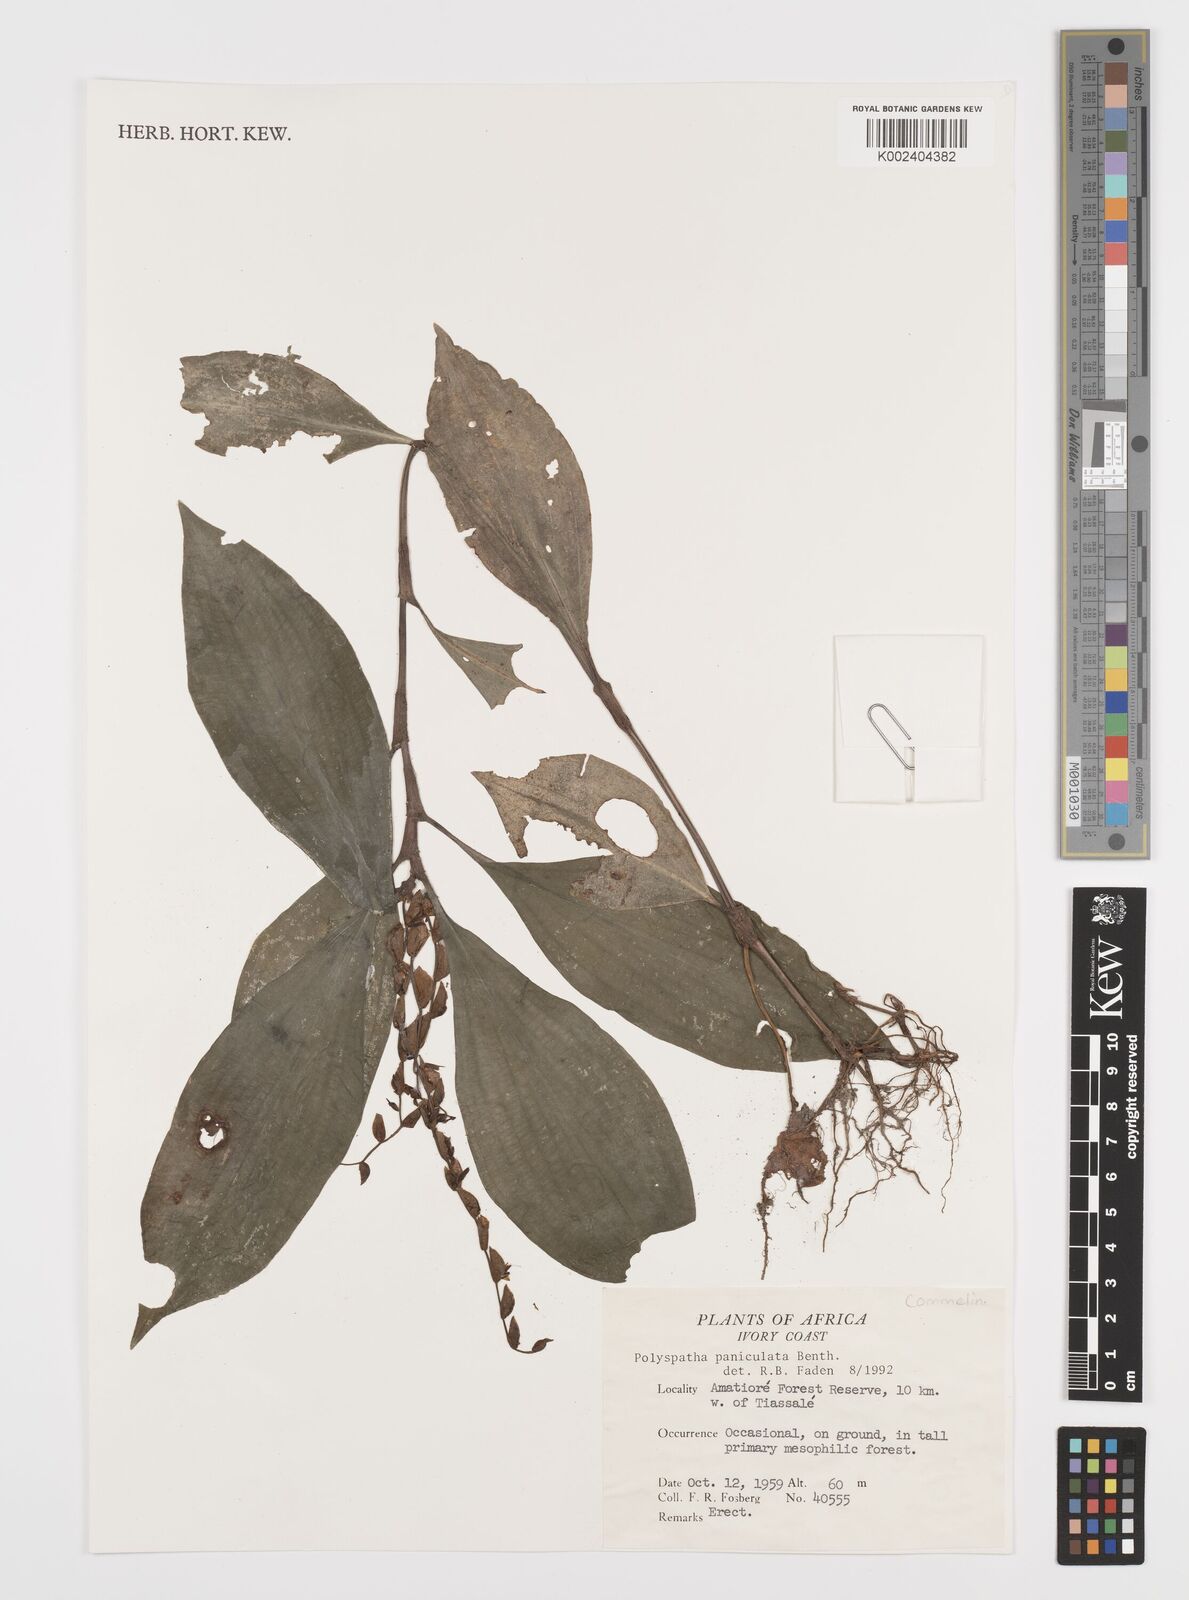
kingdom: Plantae
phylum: Tracheophyta
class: Liliopsida
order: Commelinales
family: Commelinaceae
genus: Polyspatha
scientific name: Polyspatha paniculata
